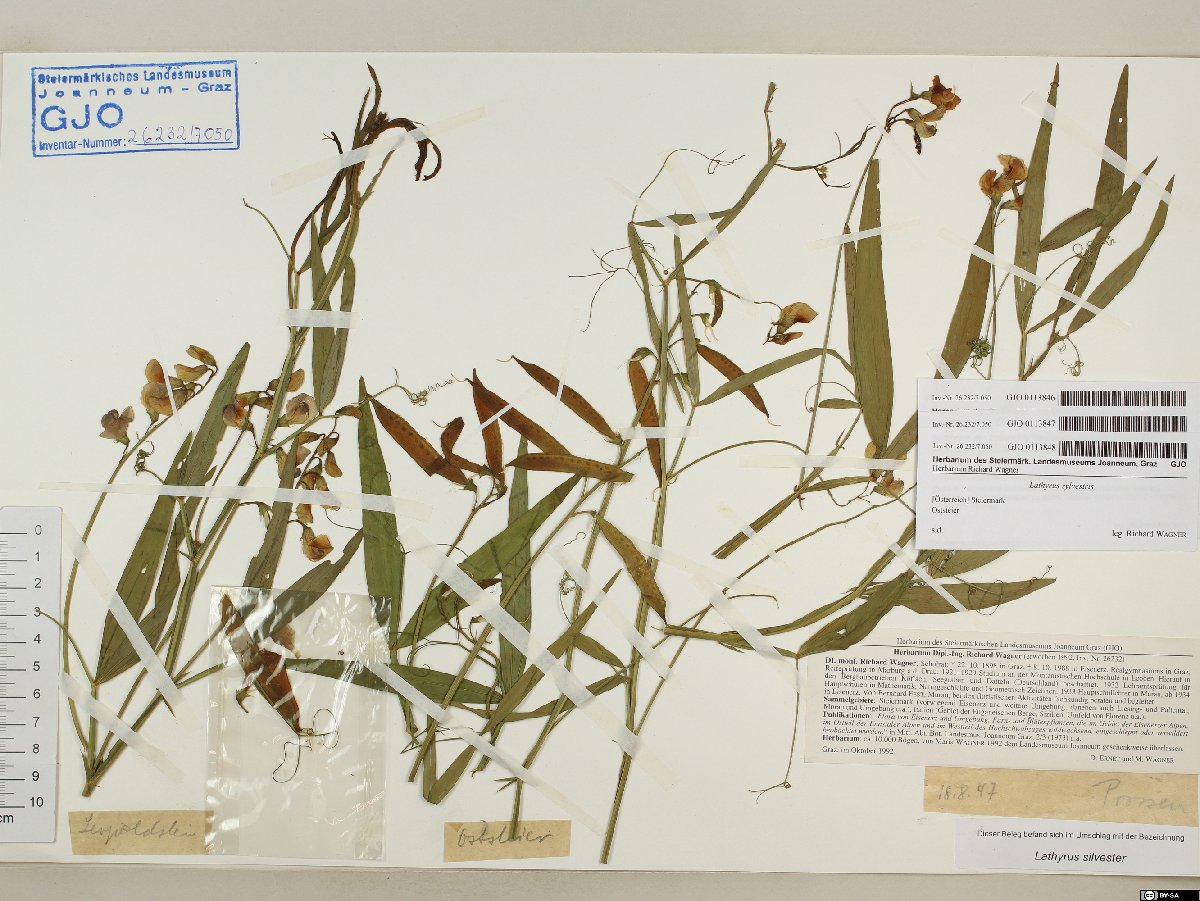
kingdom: Plantae
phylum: Tracheophyta
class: Magnoliopsida
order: Fabales
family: Fabaceae
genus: Lathyrus
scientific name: Lathyrus sylvestris
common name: Flat pea
